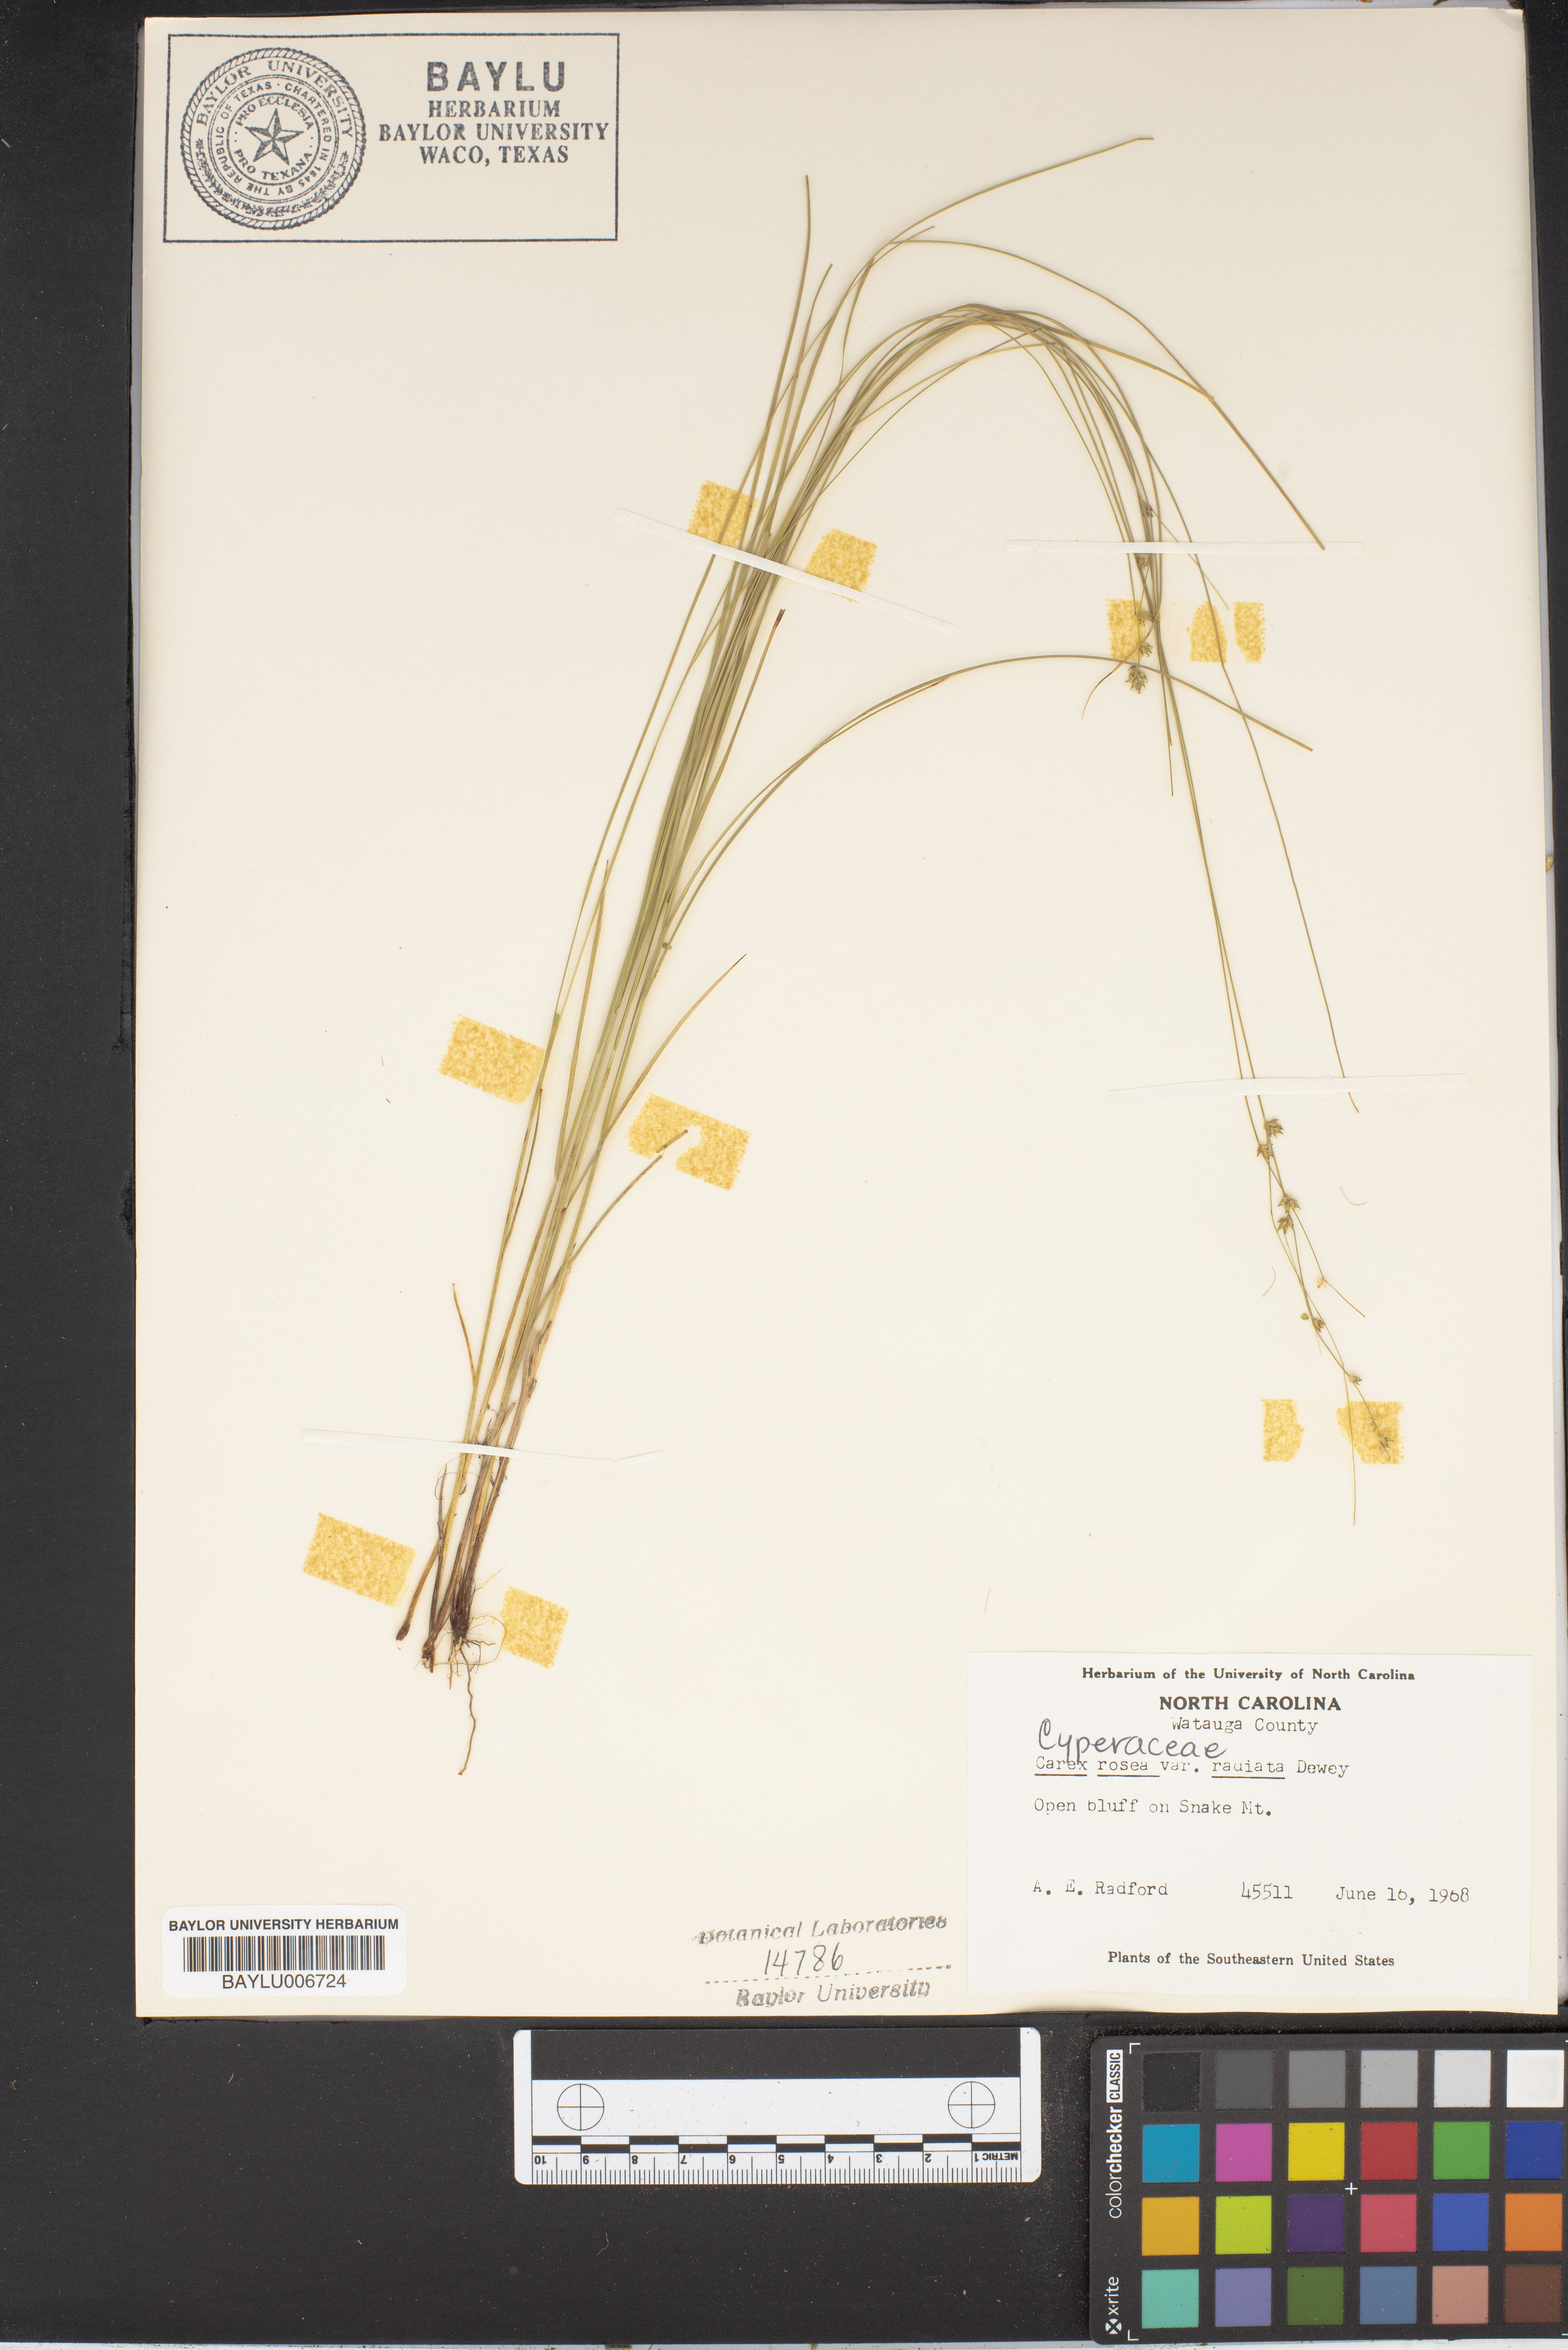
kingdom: Plantae
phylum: Tracheophyta
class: Liliopsida
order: Poales
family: Cyperaceae
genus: Carex
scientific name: Carex radiata
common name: Eastern star sedge
